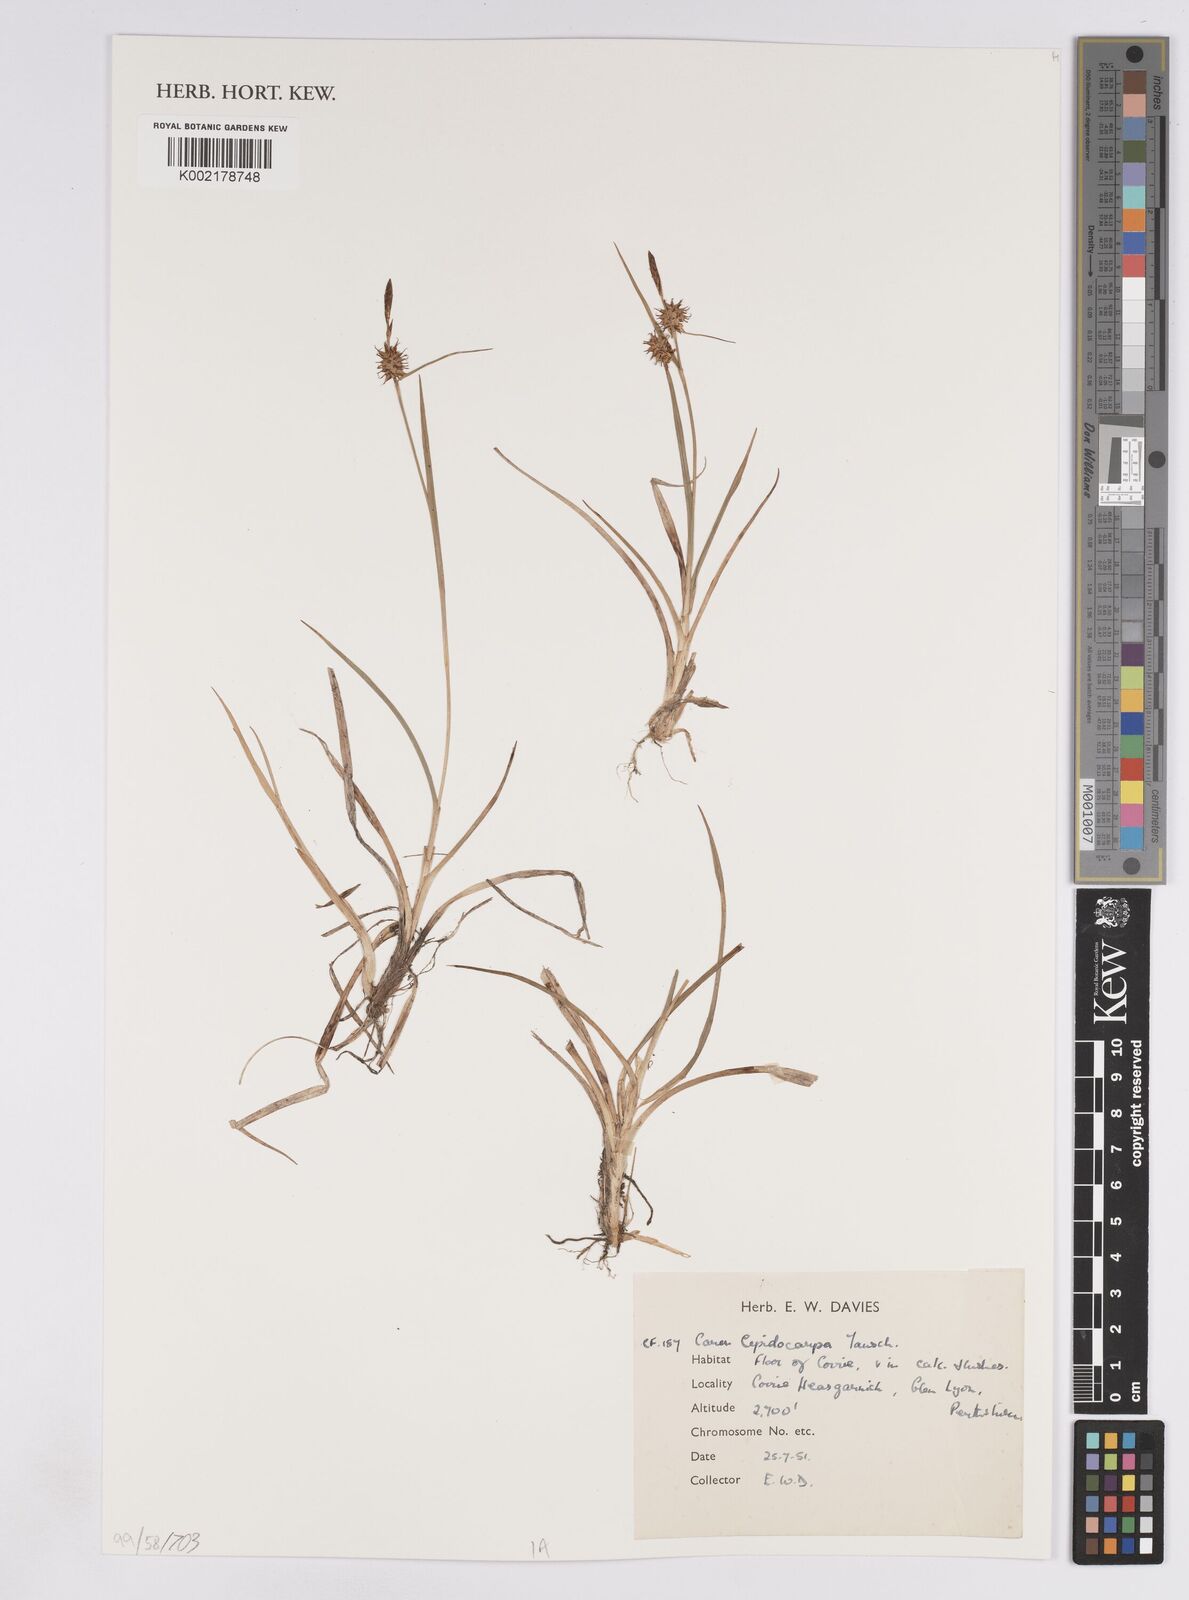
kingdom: Plantae
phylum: Tracheophyta
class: Liliopsida
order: Poales
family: Cyperaceae
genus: Carex
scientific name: Carex lepidocarpa
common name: Long-stalked yellow-sedge
